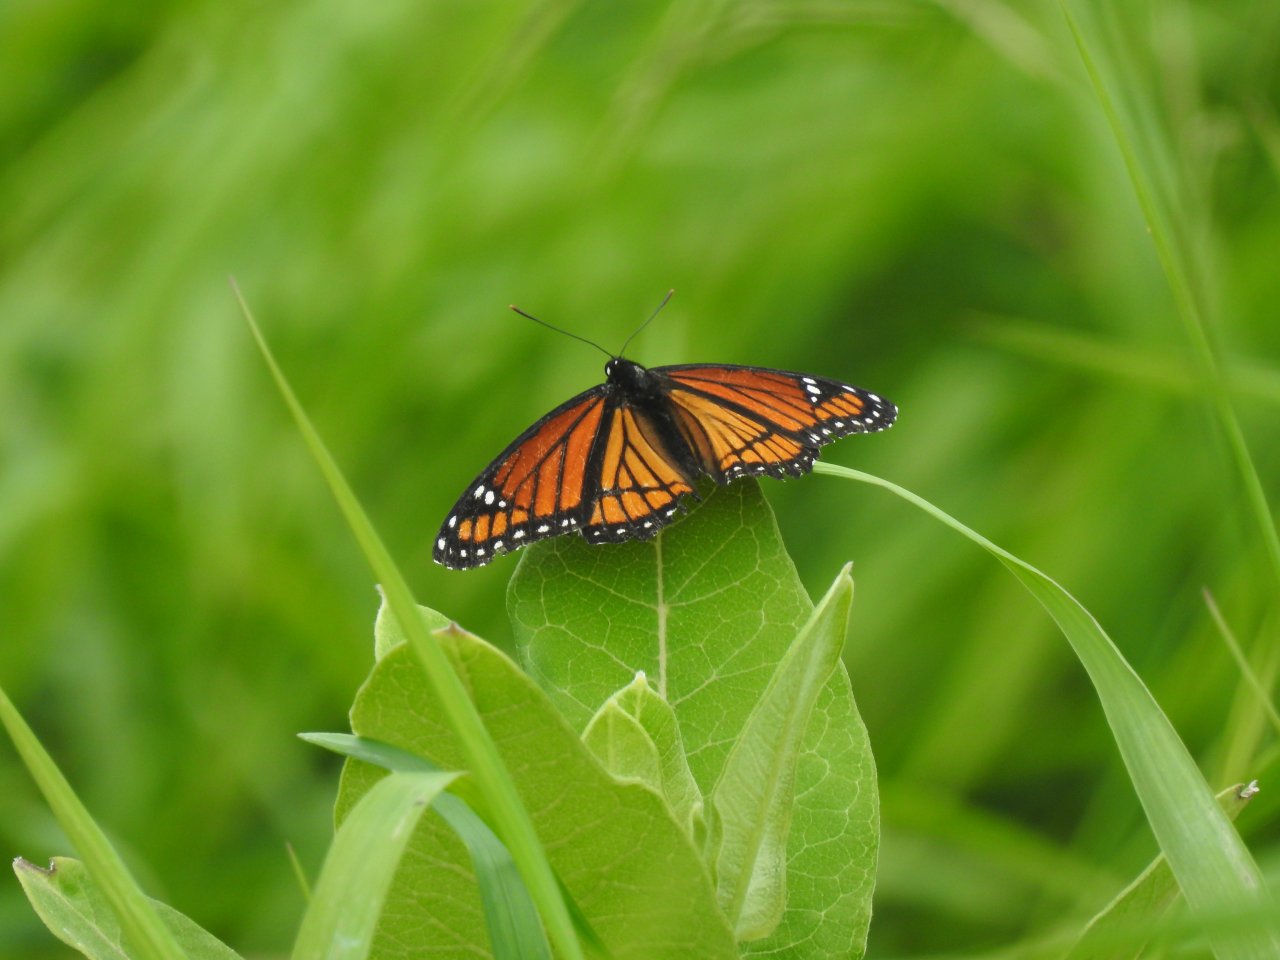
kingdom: Animalia
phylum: Arthropoda
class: Insecta
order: Lepidoptera
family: Nymphalidae
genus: Limenitis
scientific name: Limenitis archippus
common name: Viceroy
